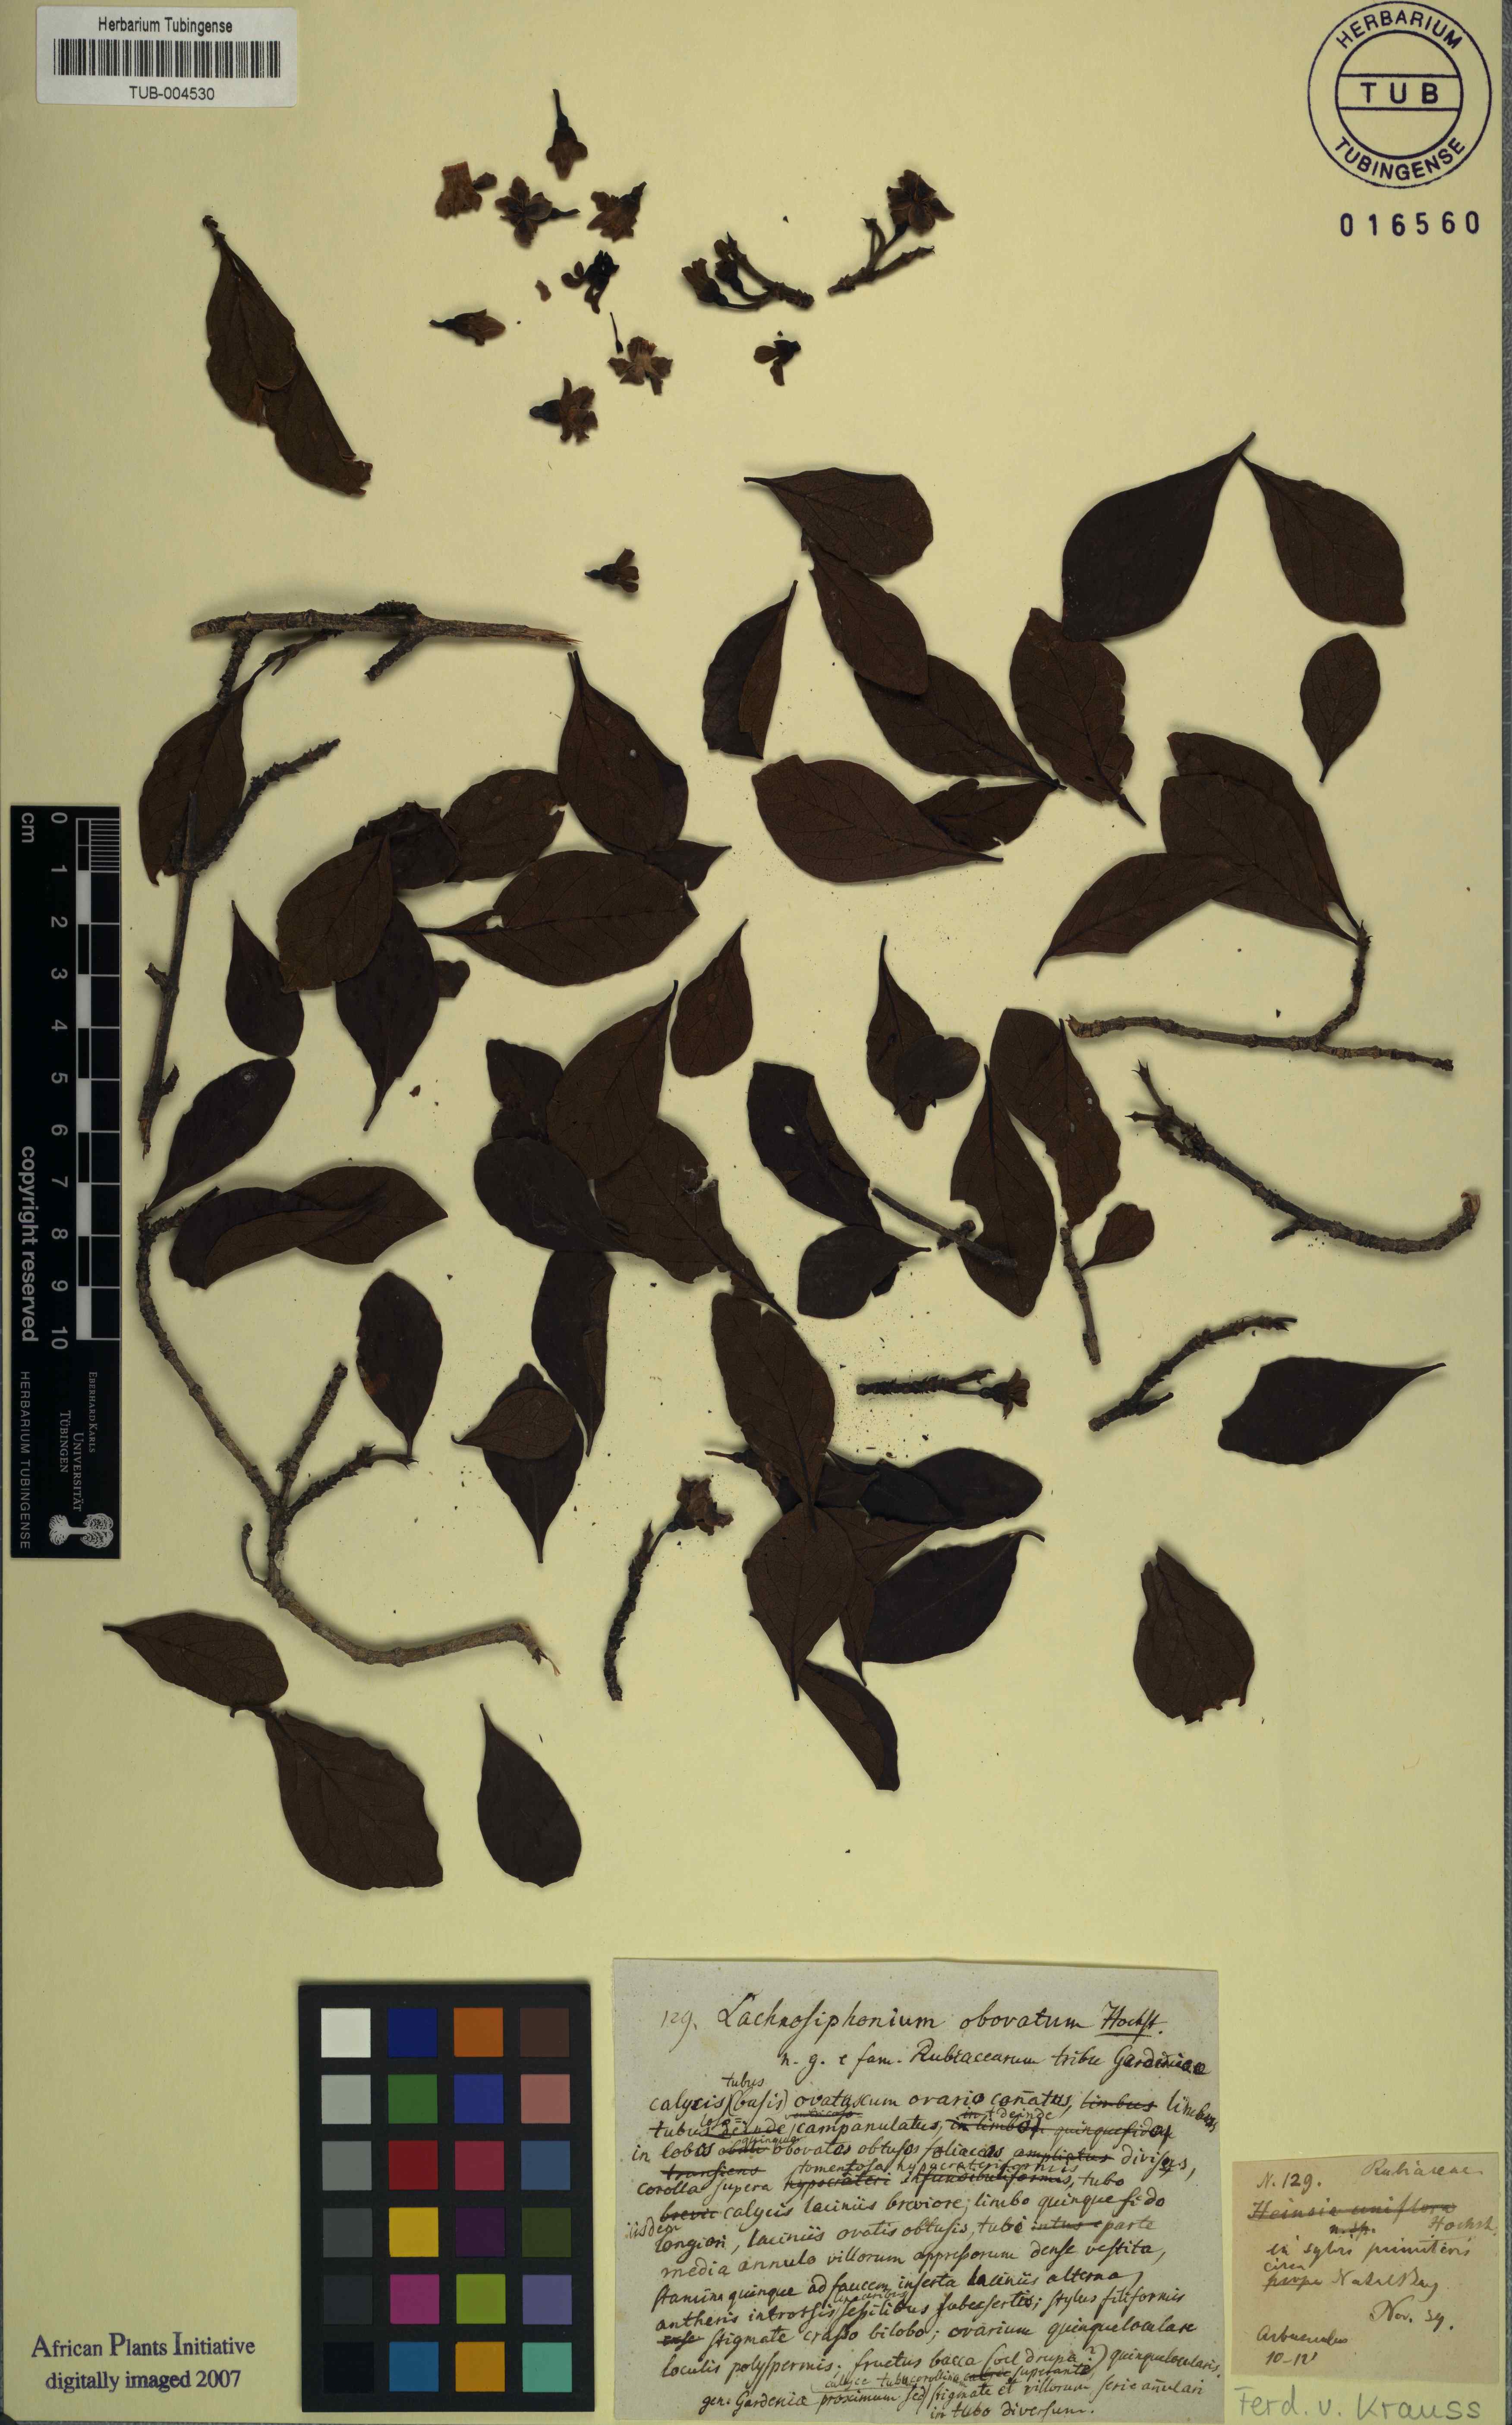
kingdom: Plantae
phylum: Tracheophyta
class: Magnoliopsida
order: Gentianales
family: Rubiaceae
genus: Catunaregam
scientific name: Catunaregam spinosa
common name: Emetic-nut
